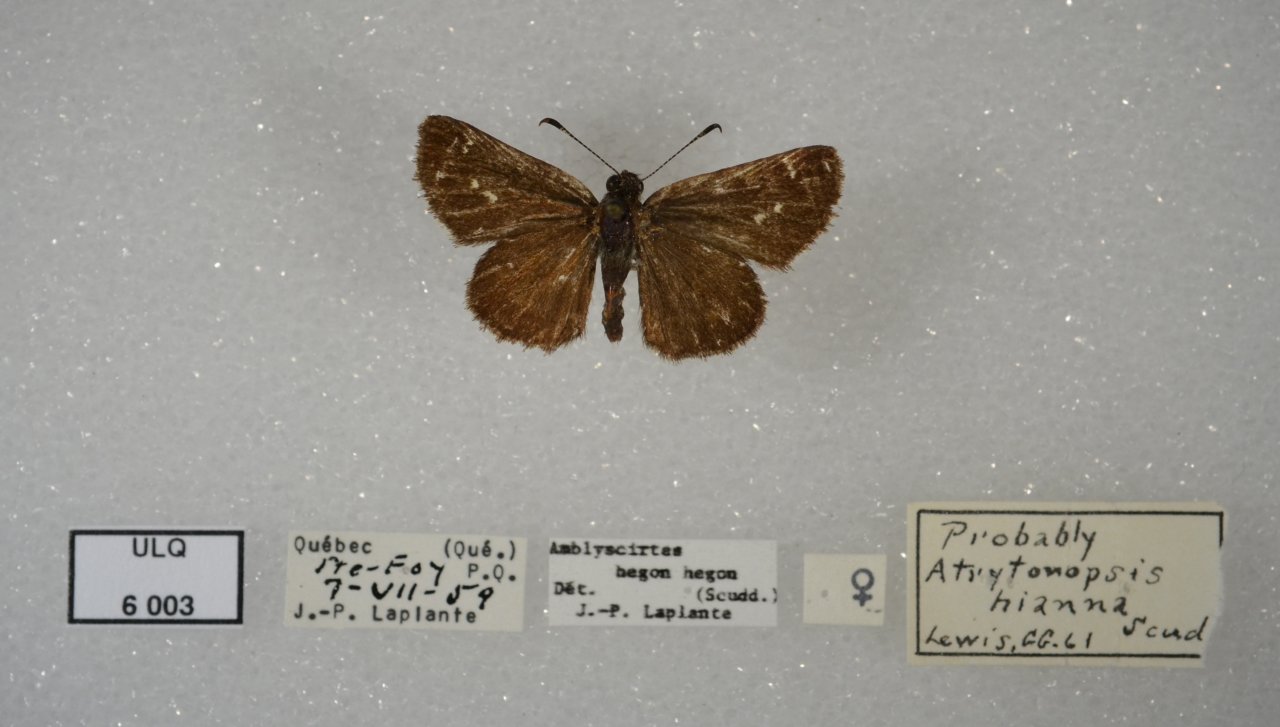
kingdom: Animalia
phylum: Arthropoda
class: Insecta
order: Lepidoptera
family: Hesperiidae
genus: Mastor
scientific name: Mastor hegon
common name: Pepper and Salt Skipper
